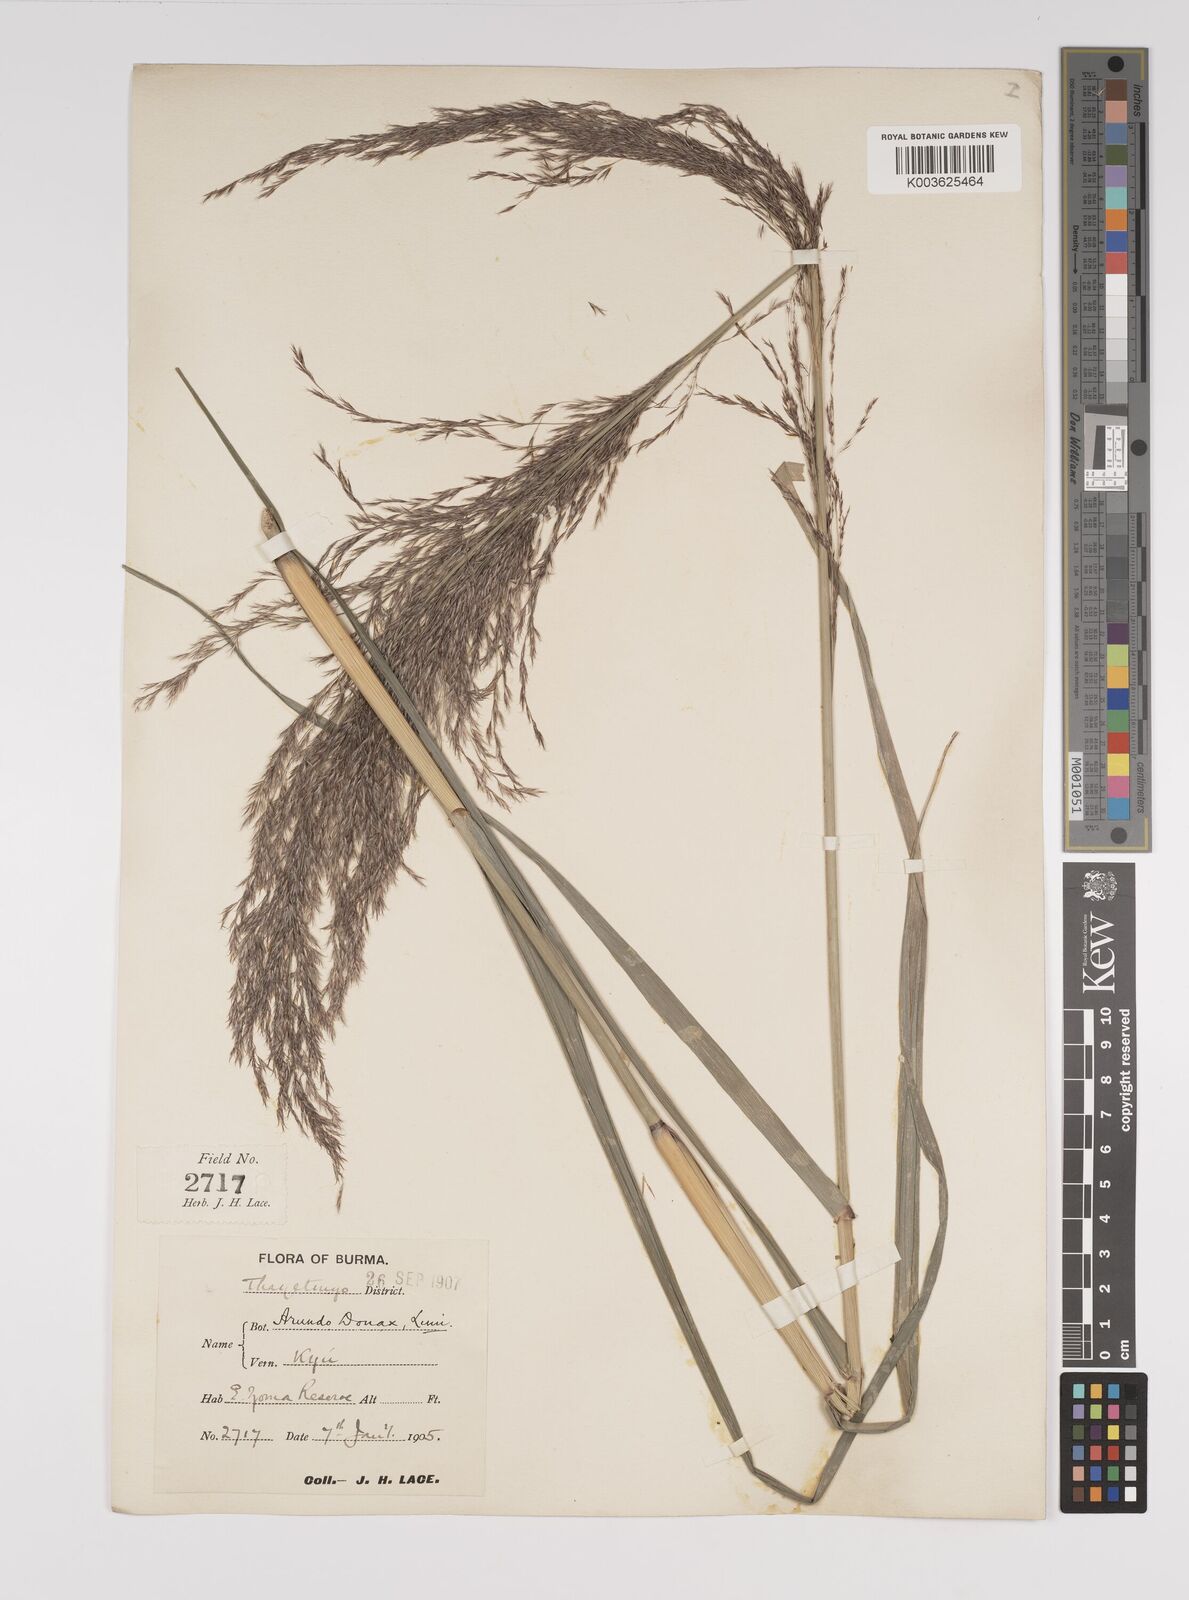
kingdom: Plantae
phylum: Tracheophyta
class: Liliopsida
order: Poales
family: Poaceae
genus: Neyraudia
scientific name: Neyraudia reynaudiana
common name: Silkreed
